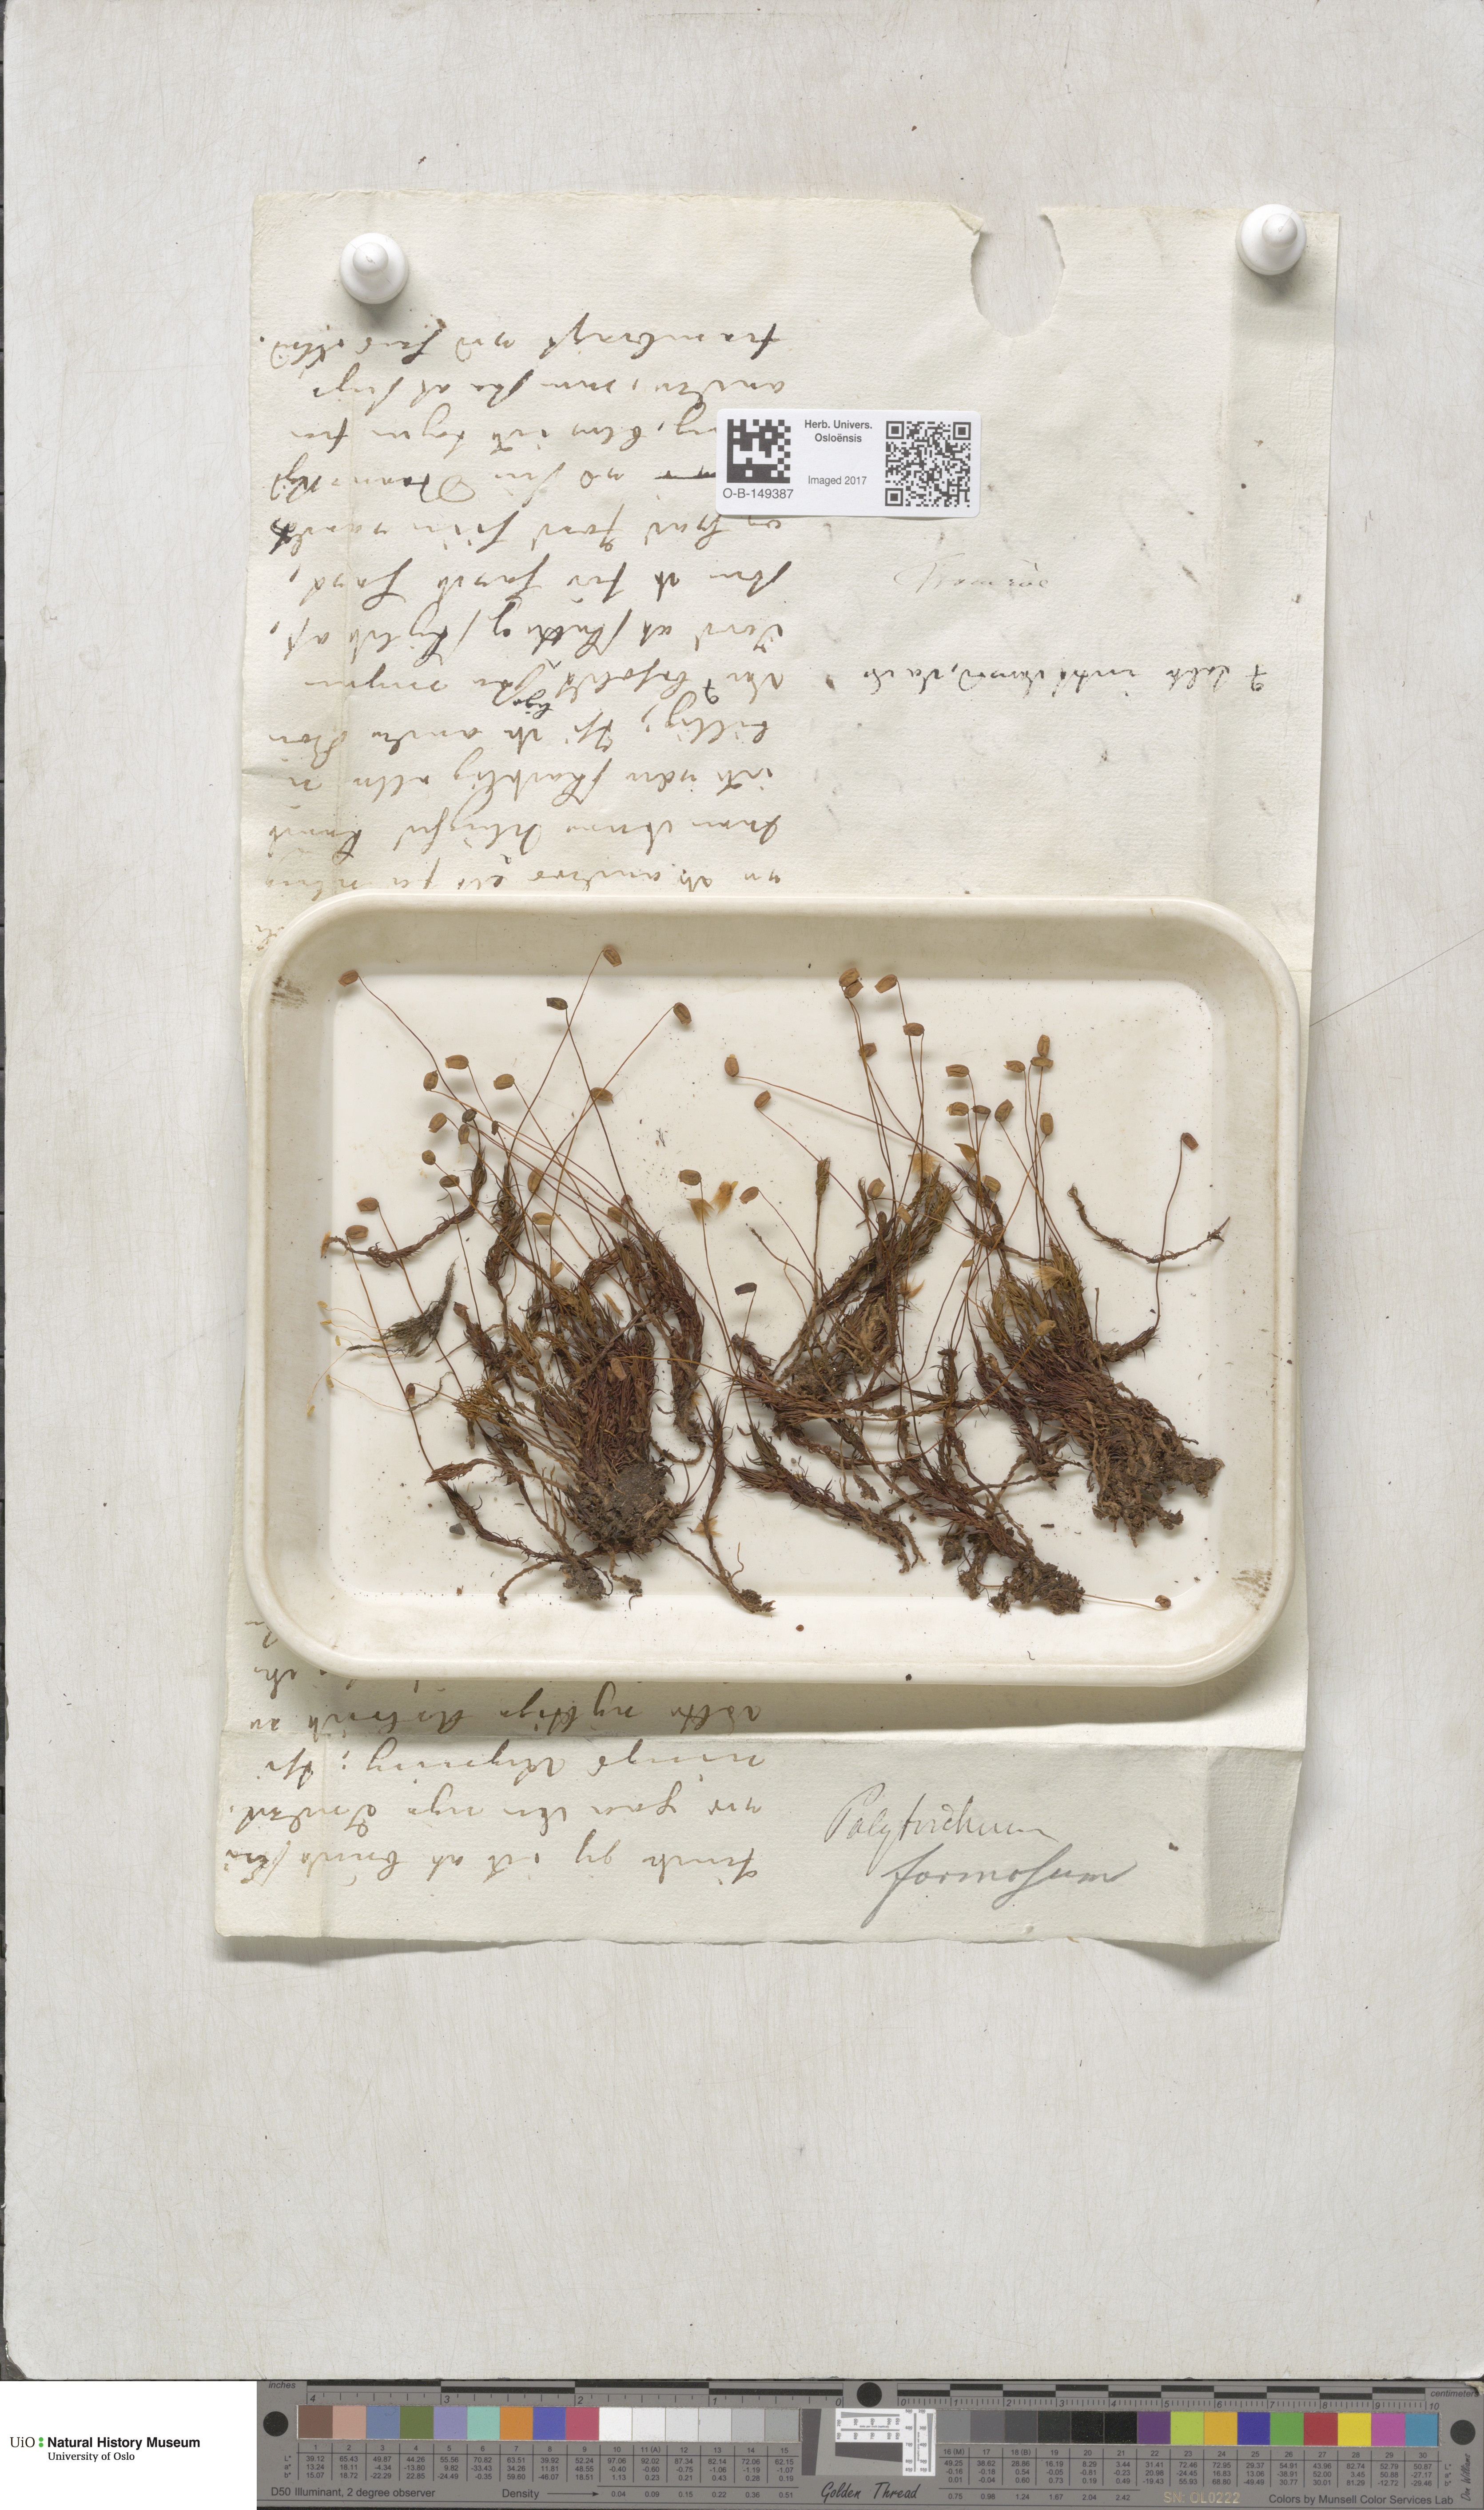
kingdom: Plantae
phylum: Bryophyta
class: Polytrichopsida
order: Polytrichales
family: Polytrichaceae
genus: Polytrichum
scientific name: Polytrichum formosum
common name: Bank haircap moss
